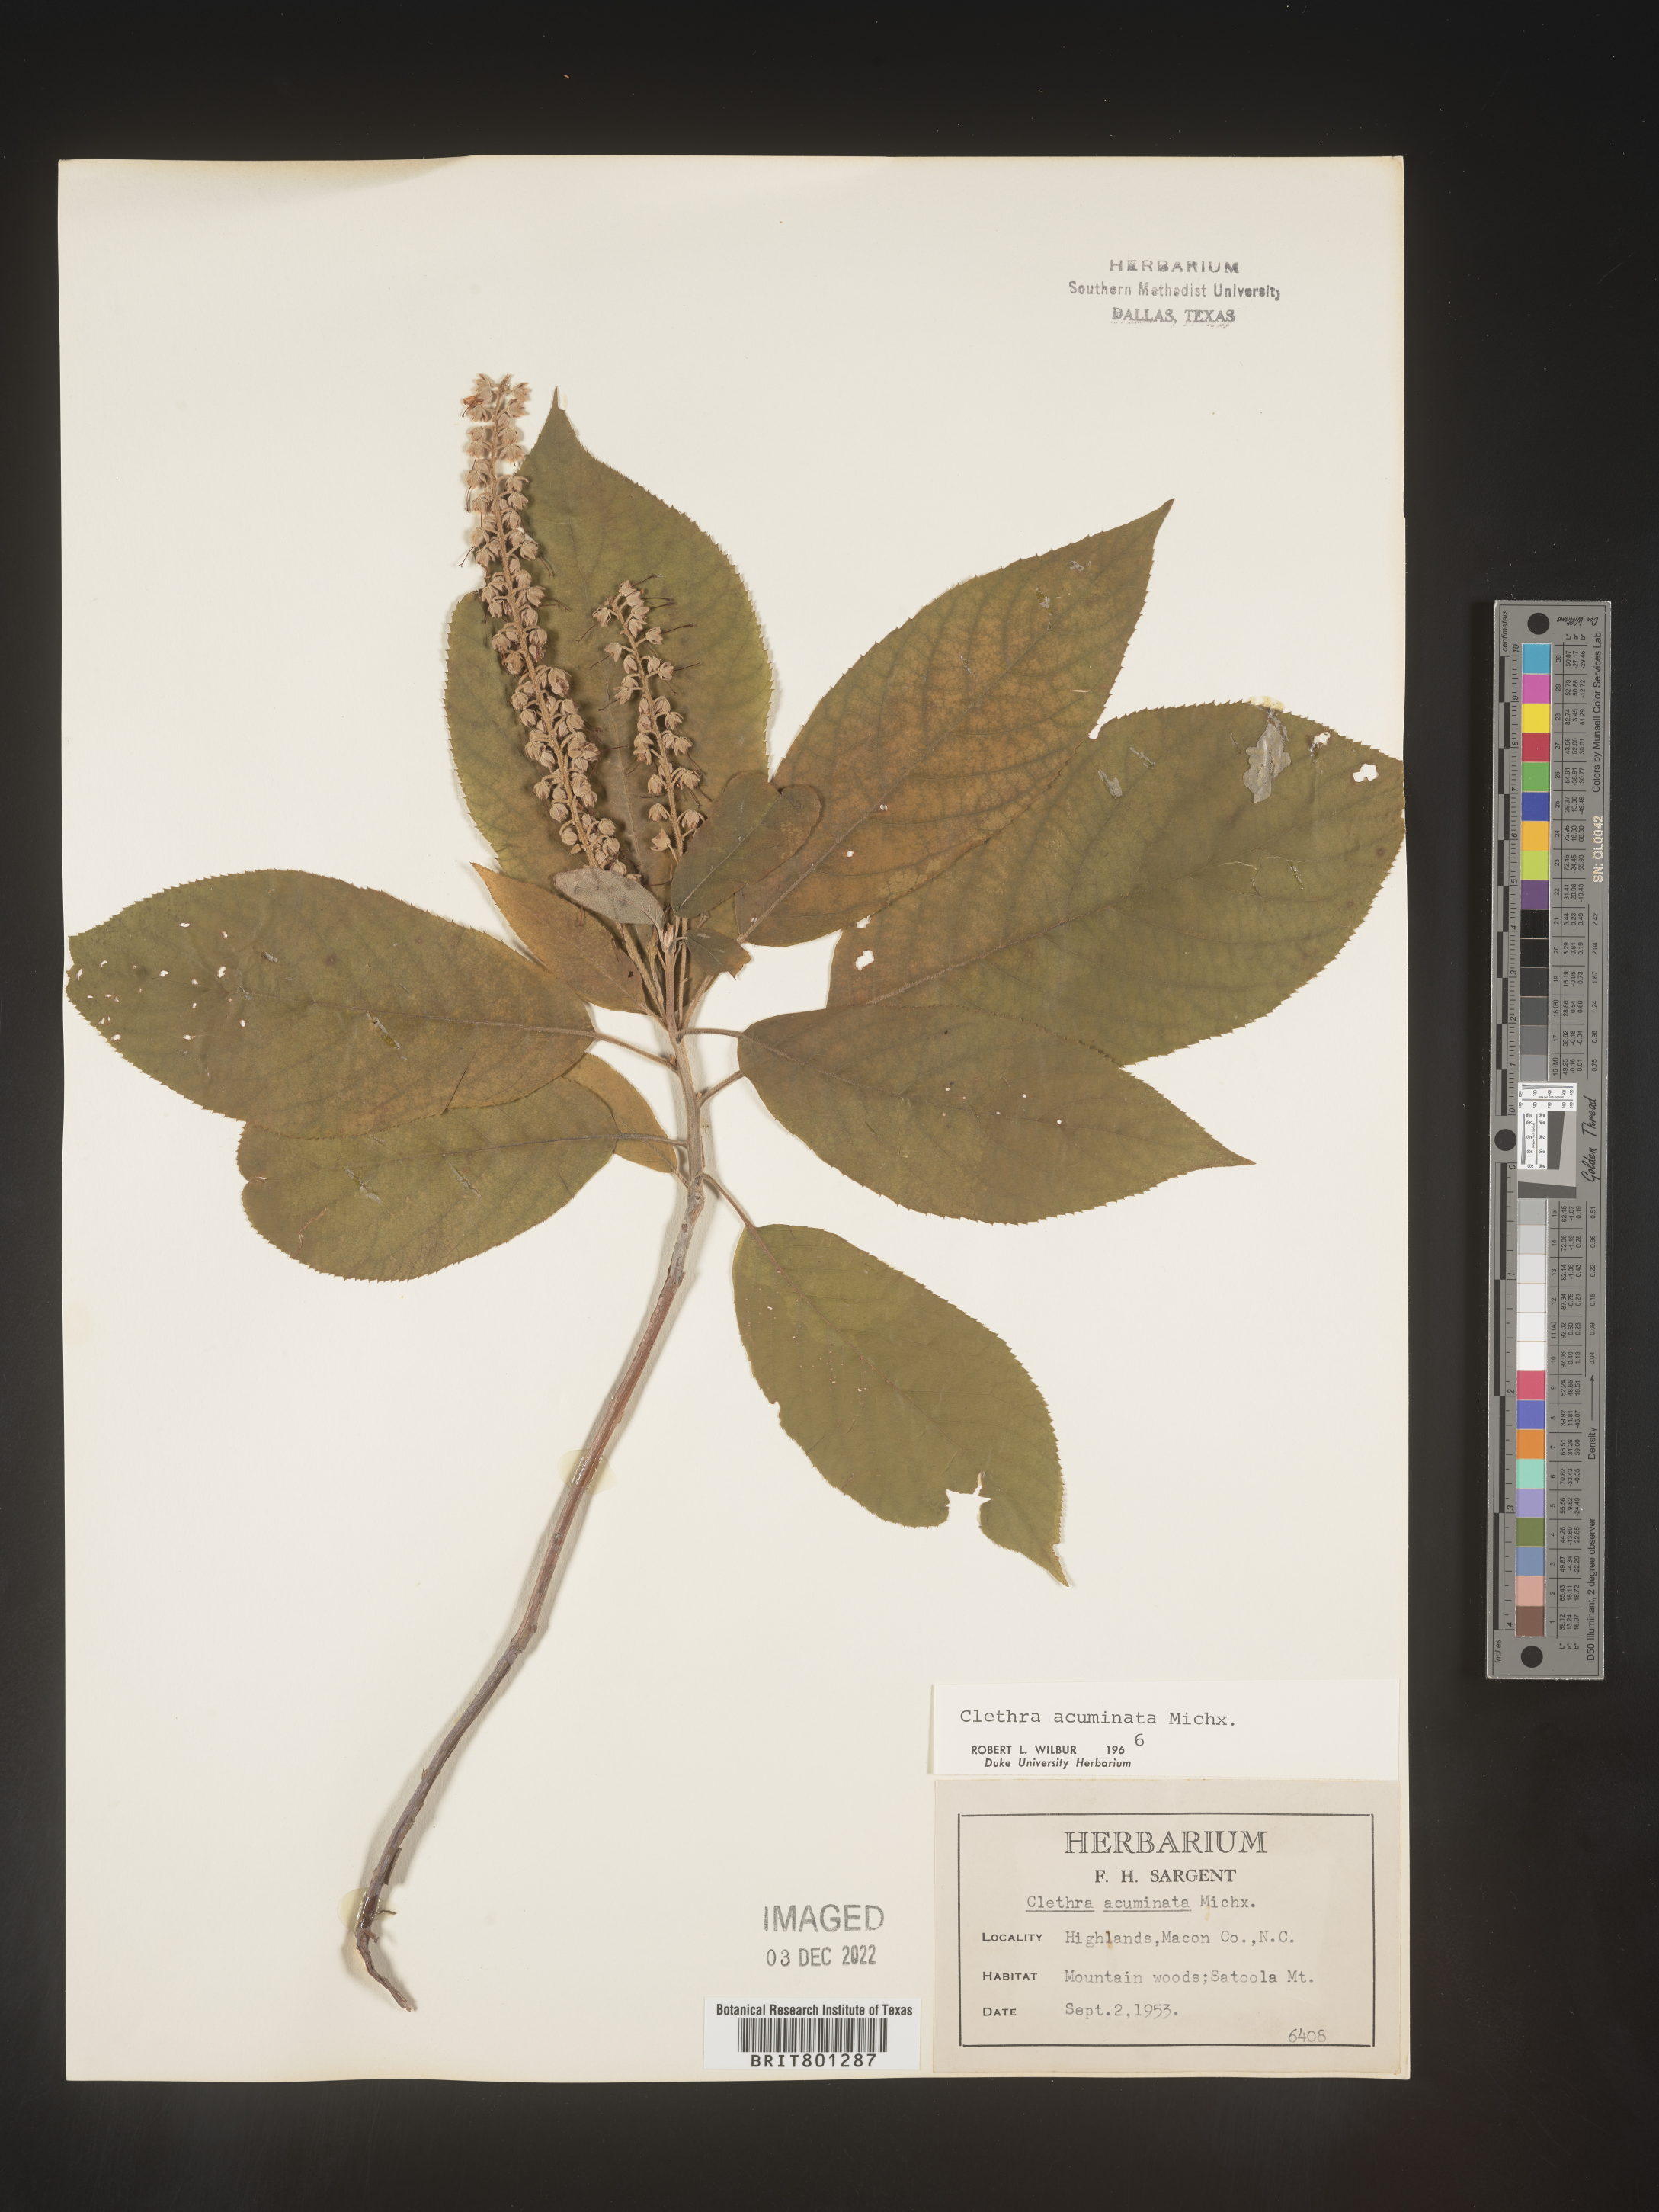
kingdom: Plantae
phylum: Tracheophyta
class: Magnoliopsida
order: Ericales
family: Clethraceae
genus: Clethra
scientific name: Clethra acuminata
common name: Mountain sweet pepperbush
